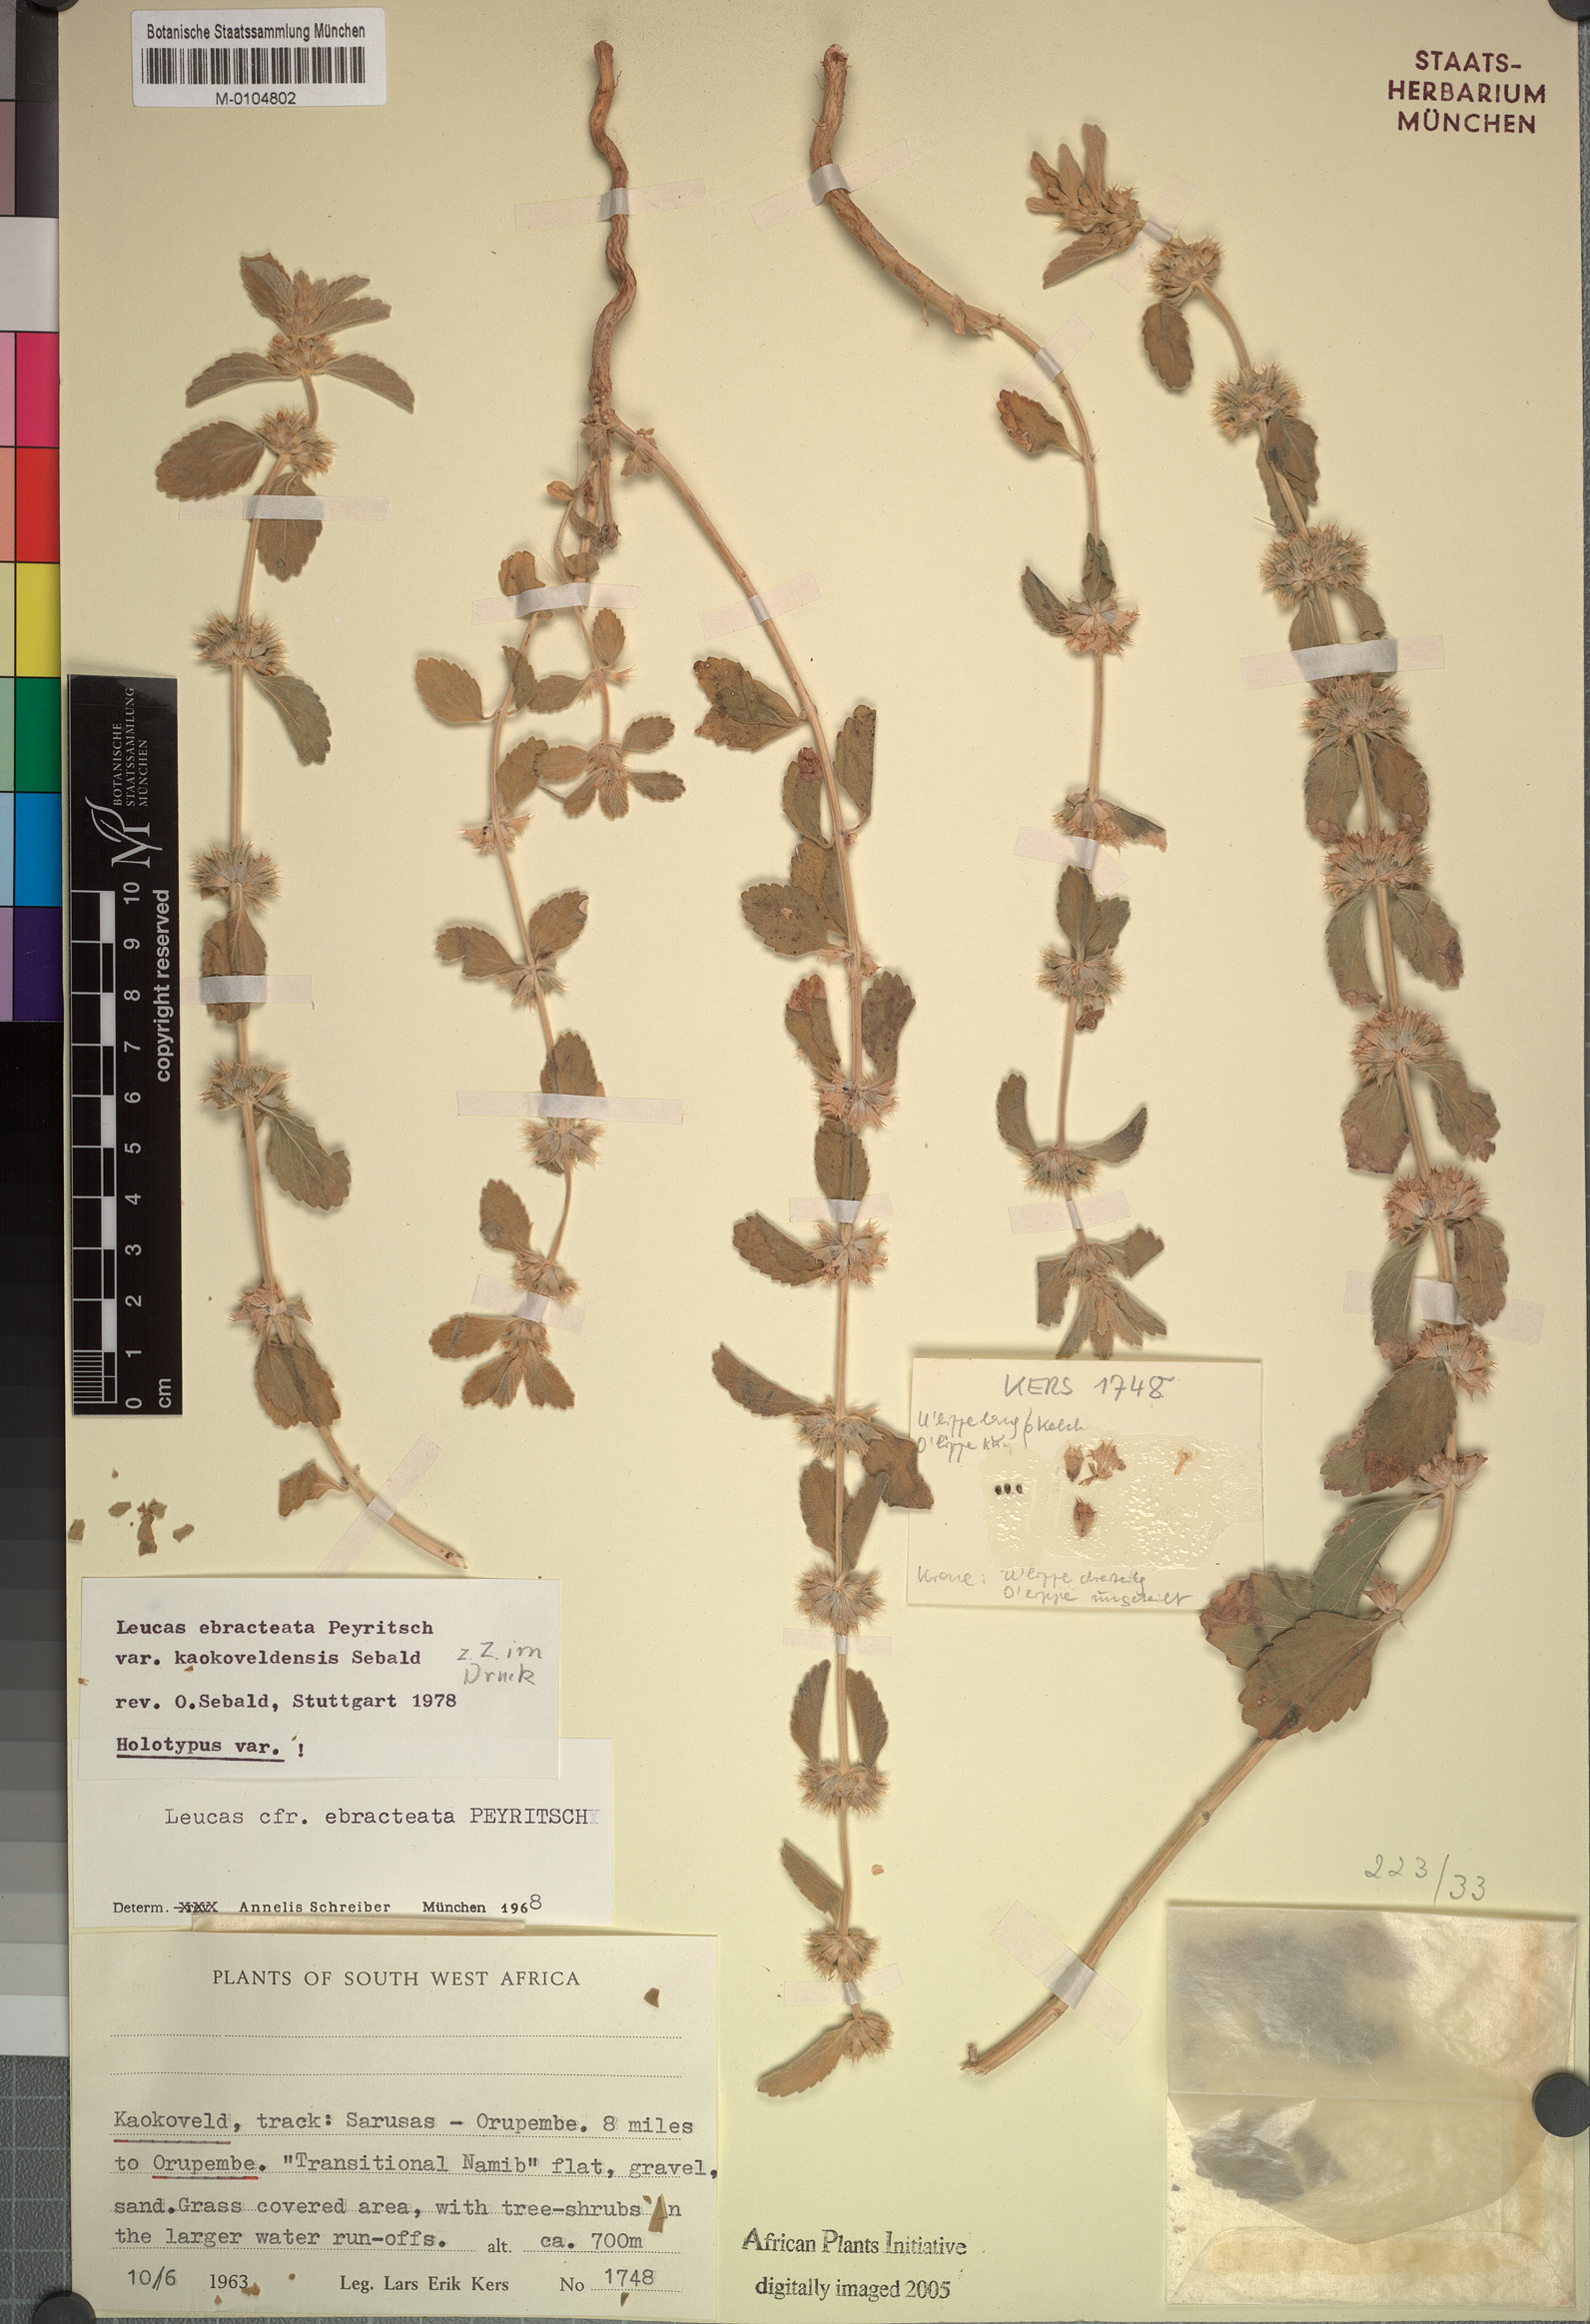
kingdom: Plantae
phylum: Tracheophyta
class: Magnoliopsida
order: Lamiales
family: Lamiaceae
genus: Leucas
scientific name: Leucas ebracteata
